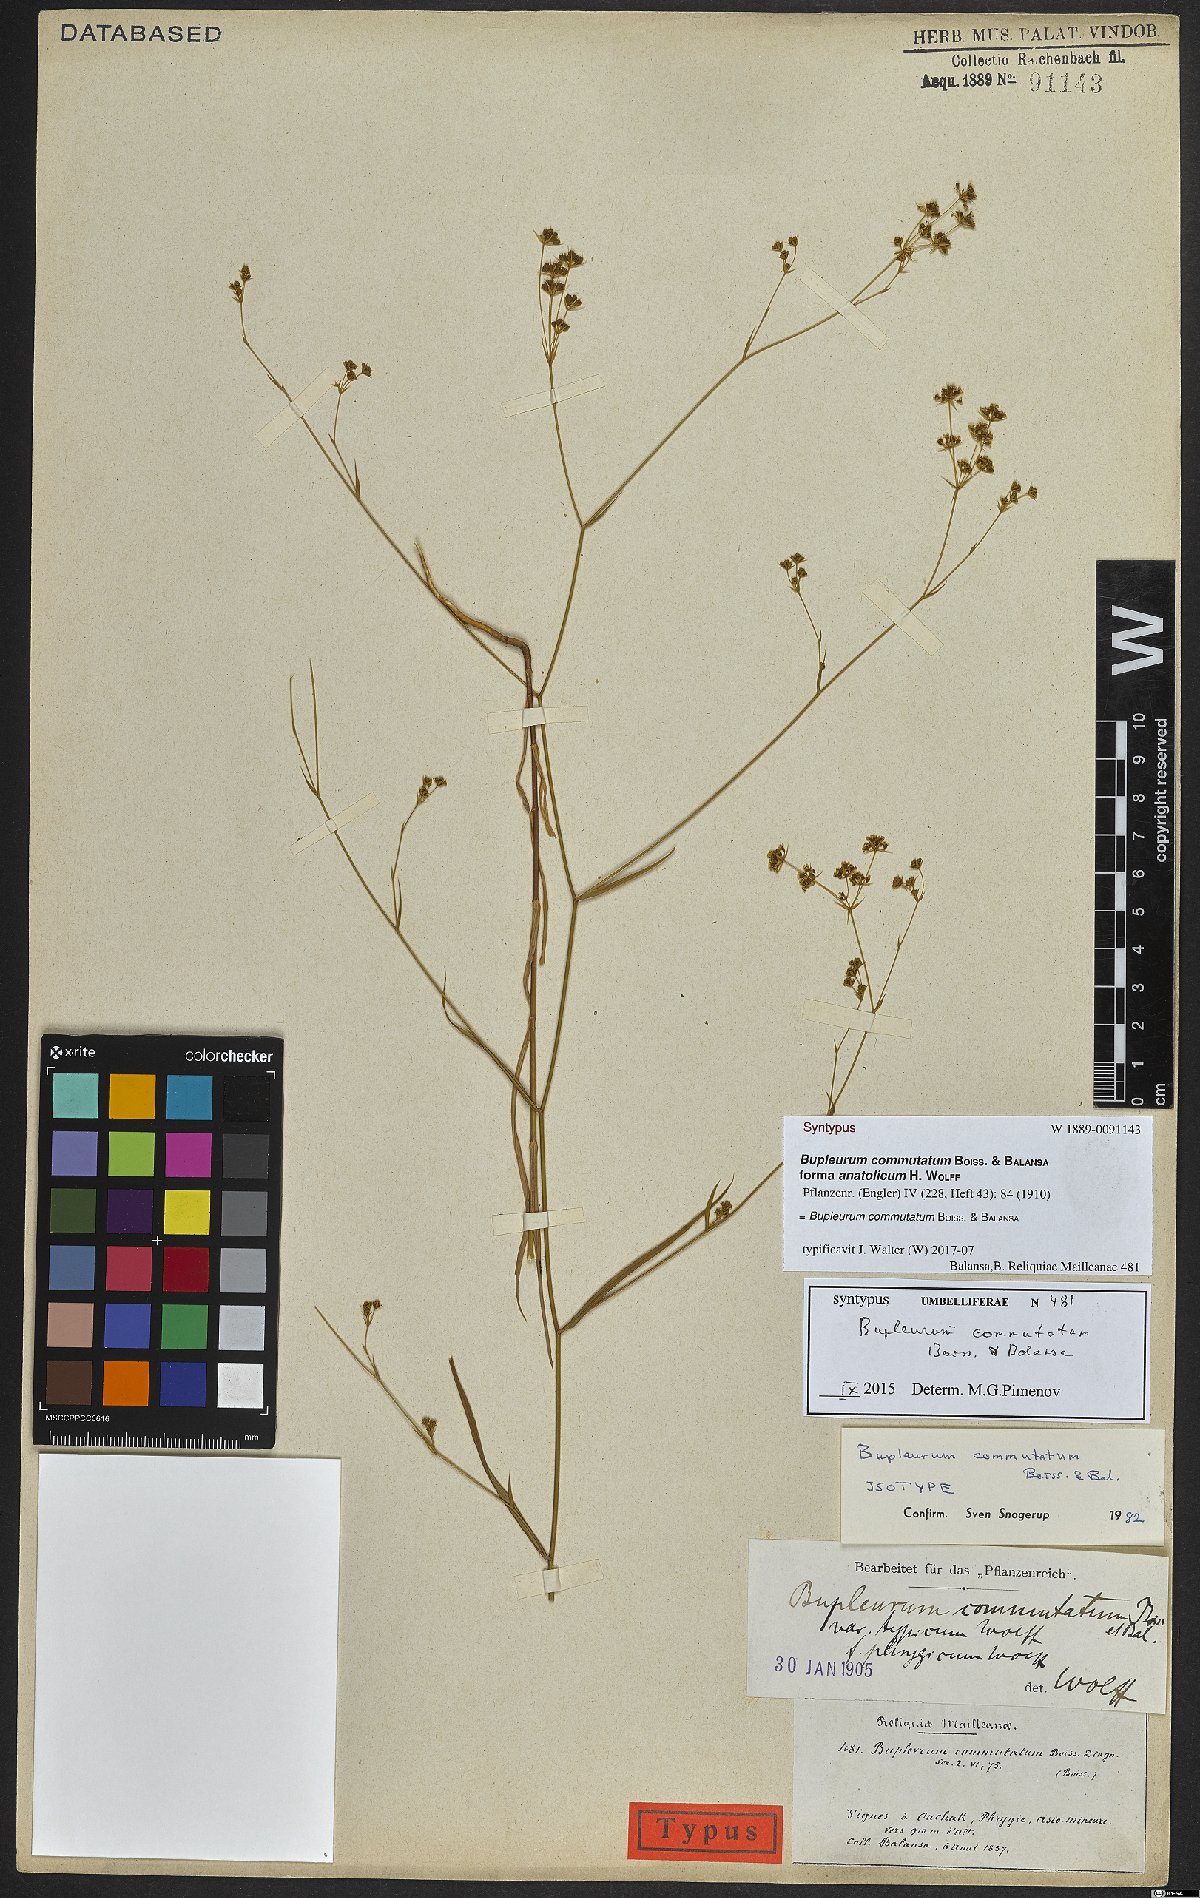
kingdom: Plantae
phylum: Tracheophyta
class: Magnoliopsida
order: Apiales
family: Apiaceae
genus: Bupleurum
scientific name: Bupleurum commutatum
